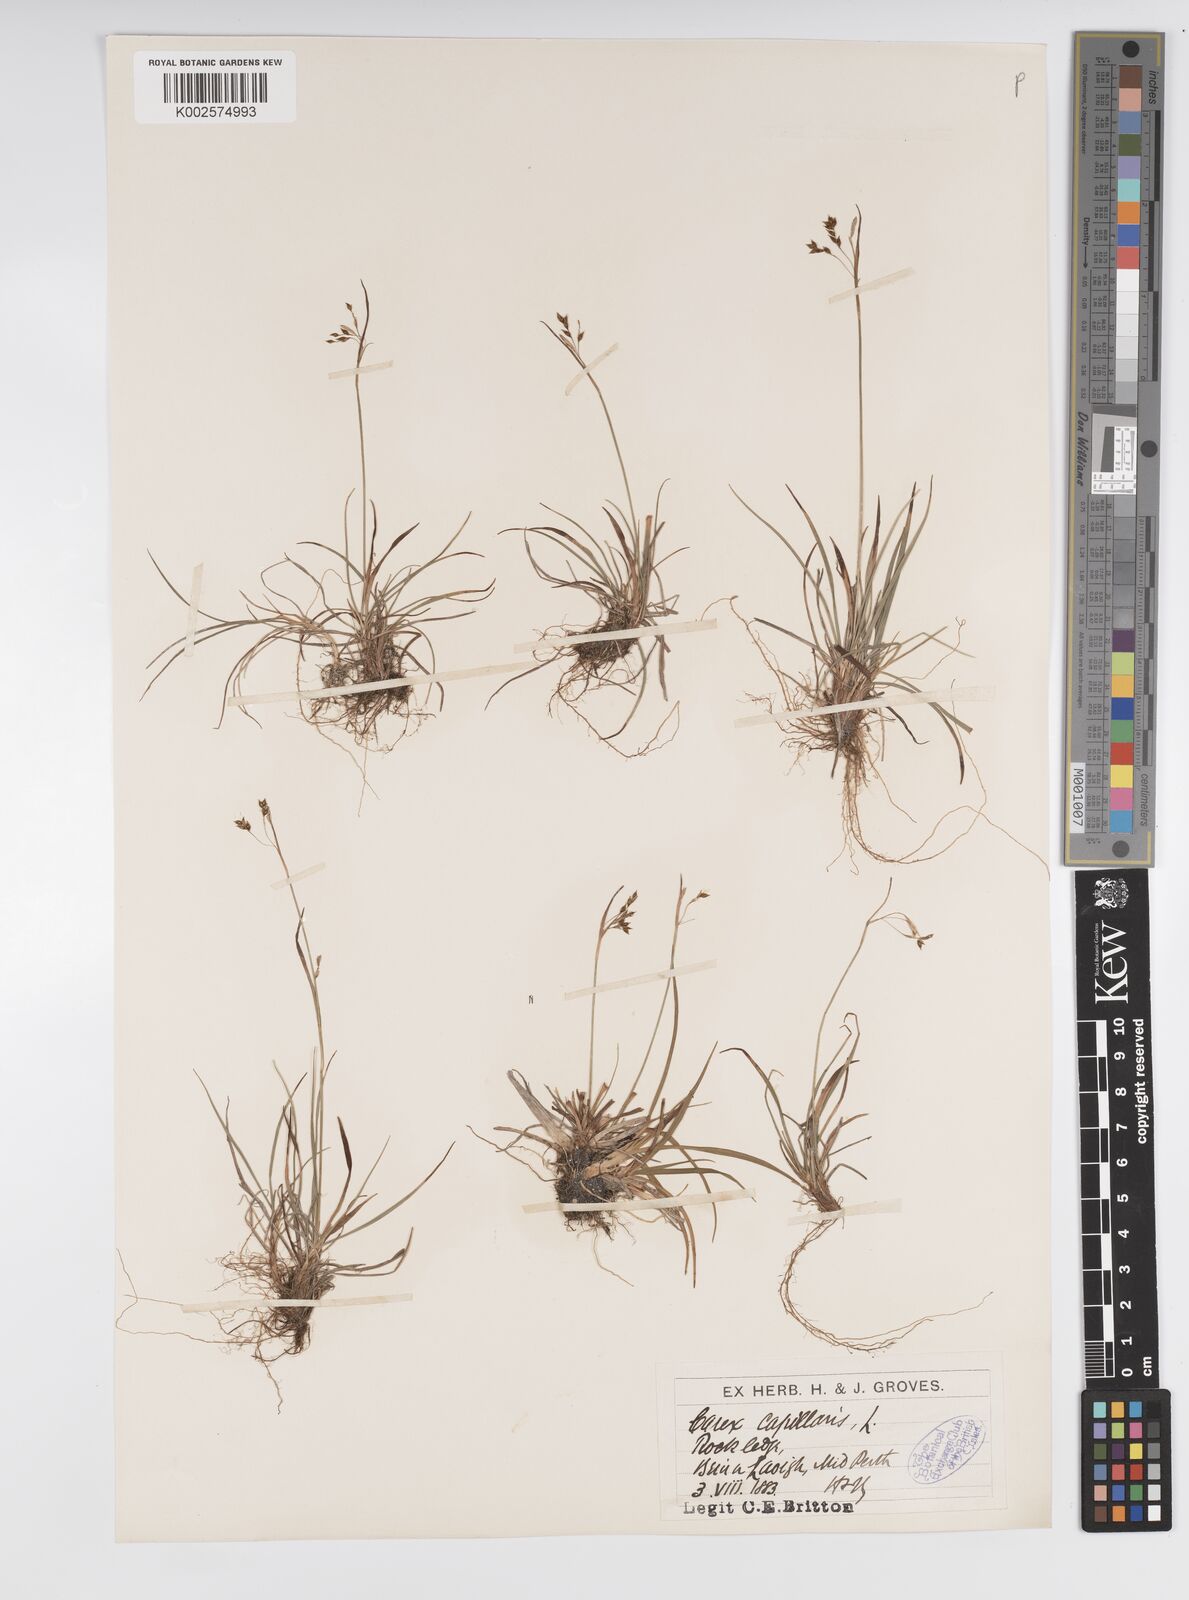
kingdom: Plantae
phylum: Tracheophyta
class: Liliopsida
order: Poales
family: Cyperaceae
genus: Carex
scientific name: Carex capillaris
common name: Hair sedge
